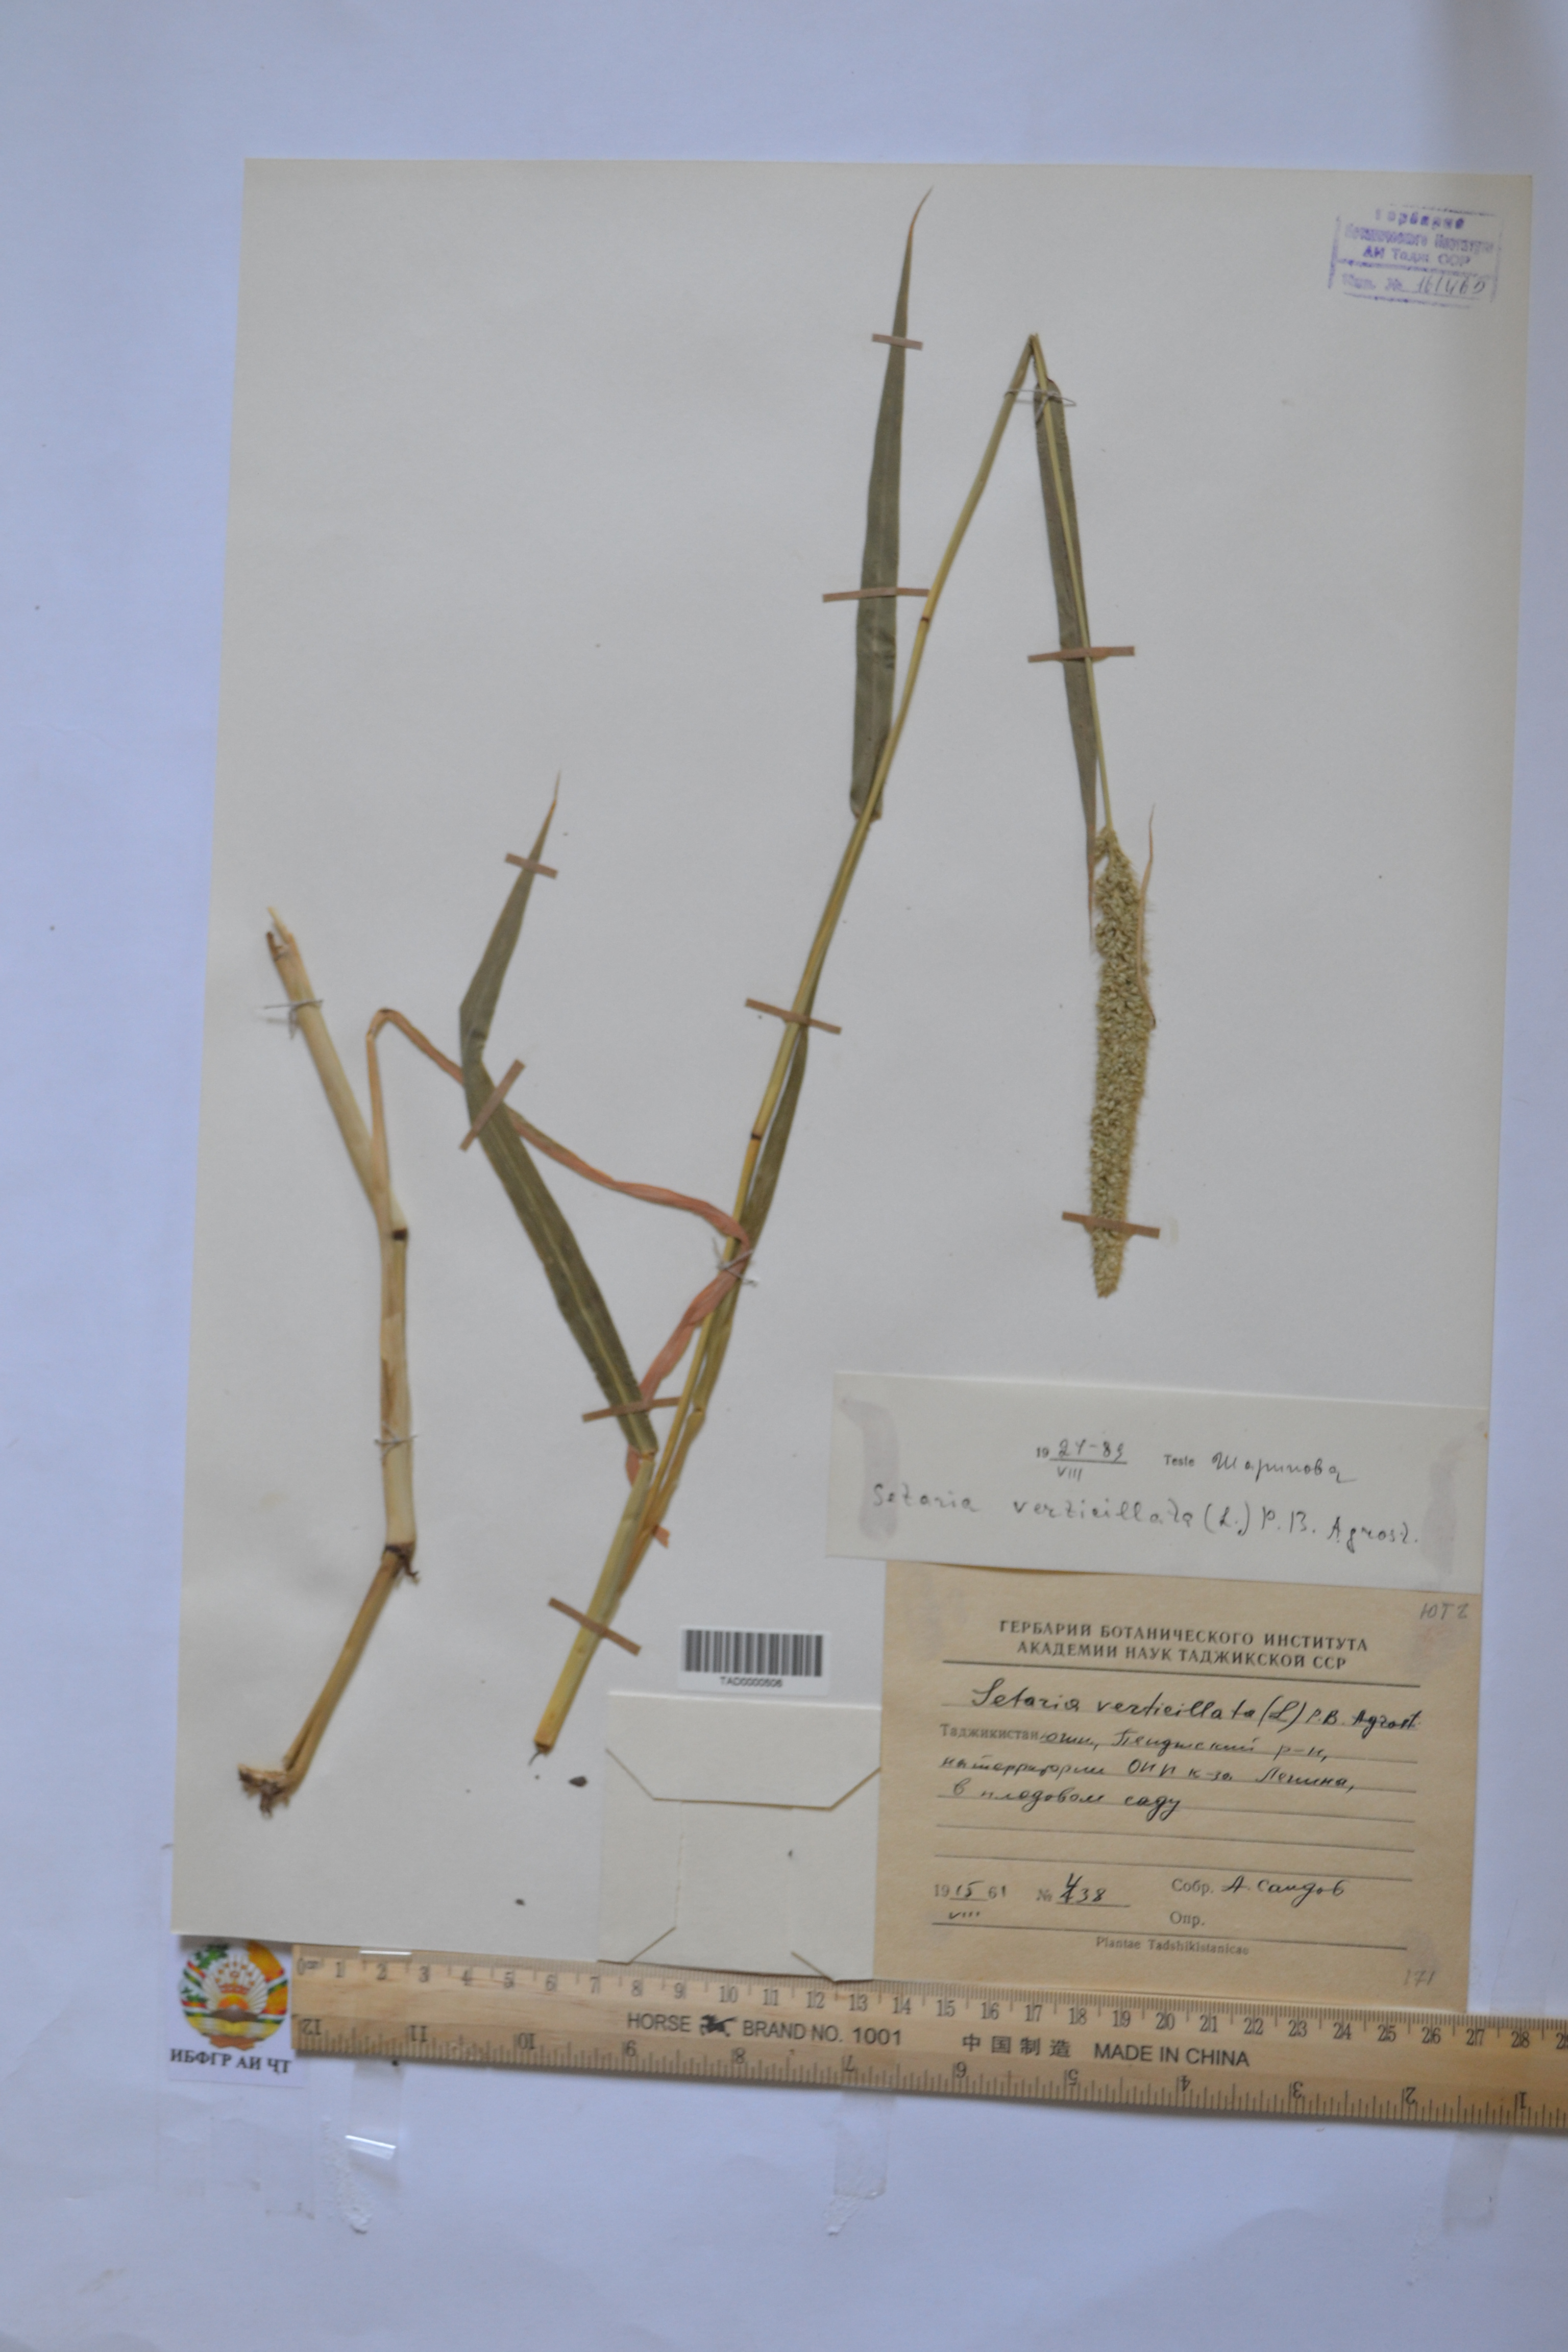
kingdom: Plantae
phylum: Tracheophyta
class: Liliopsida
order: Poales
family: Poaceae
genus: Setaria
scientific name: Setaria verticillata
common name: Hooked bristlegrass
